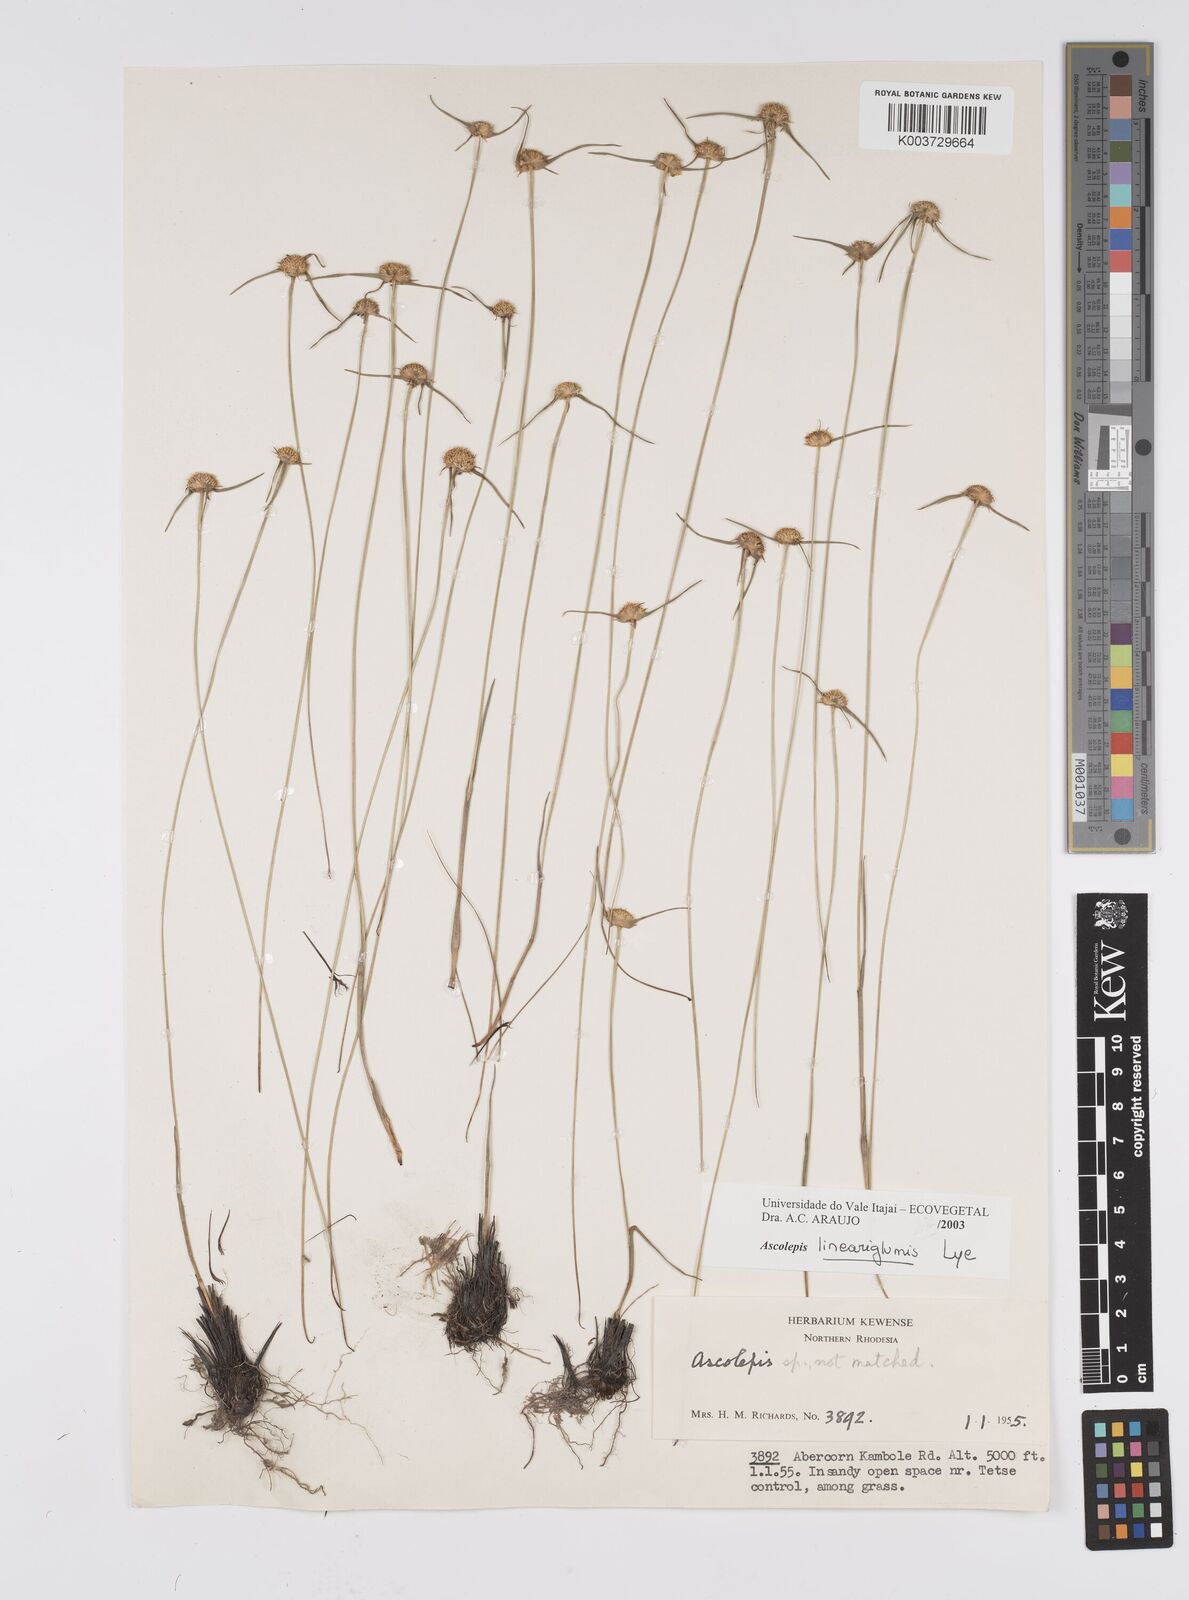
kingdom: Plantae
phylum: Tracheophyta
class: Liliopsida
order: Poales
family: Cyperaceae
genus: Cyperus
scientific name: Cyperus
